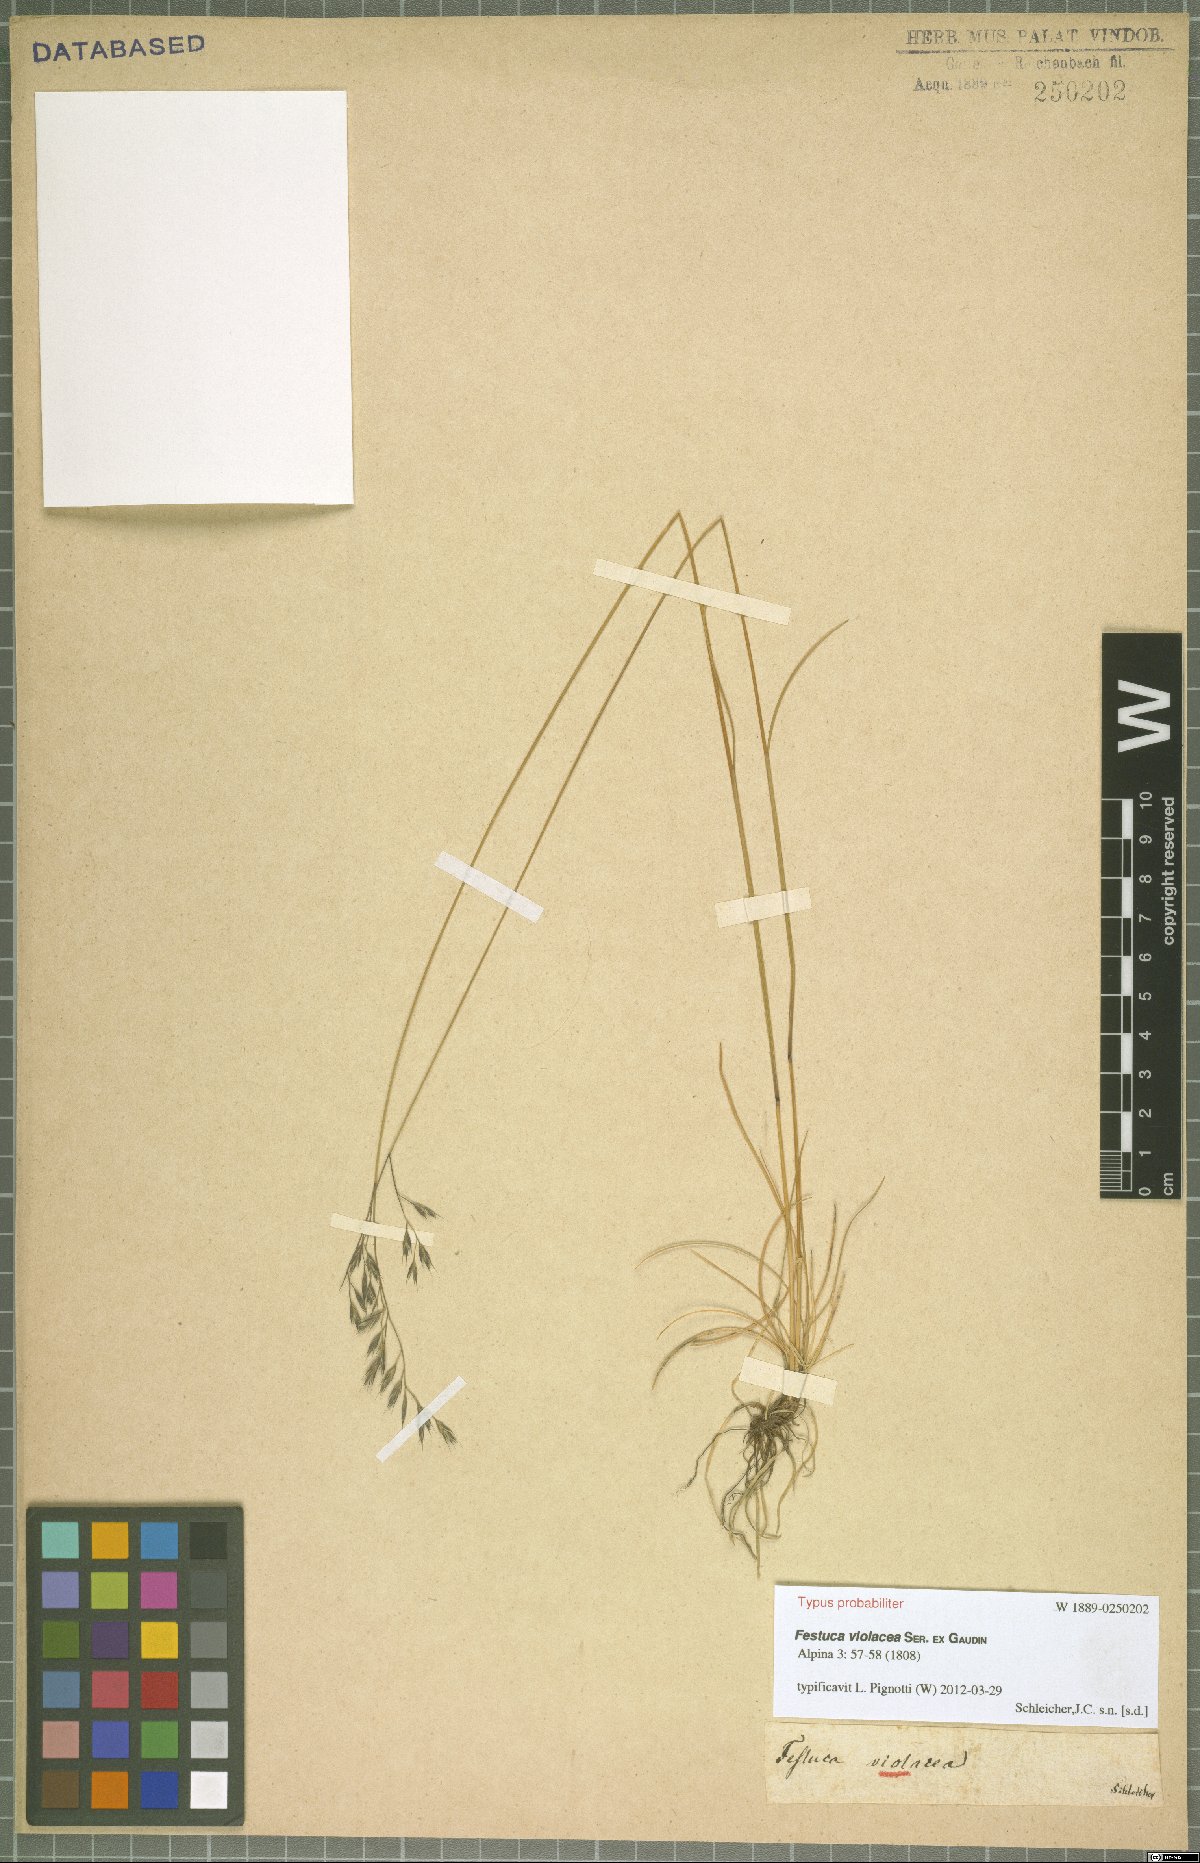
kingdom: Plantae
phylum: Tracheophyta
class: Liliopsida
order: Poales
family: Poaceae
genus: Festuca
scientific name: Festuca violacea
